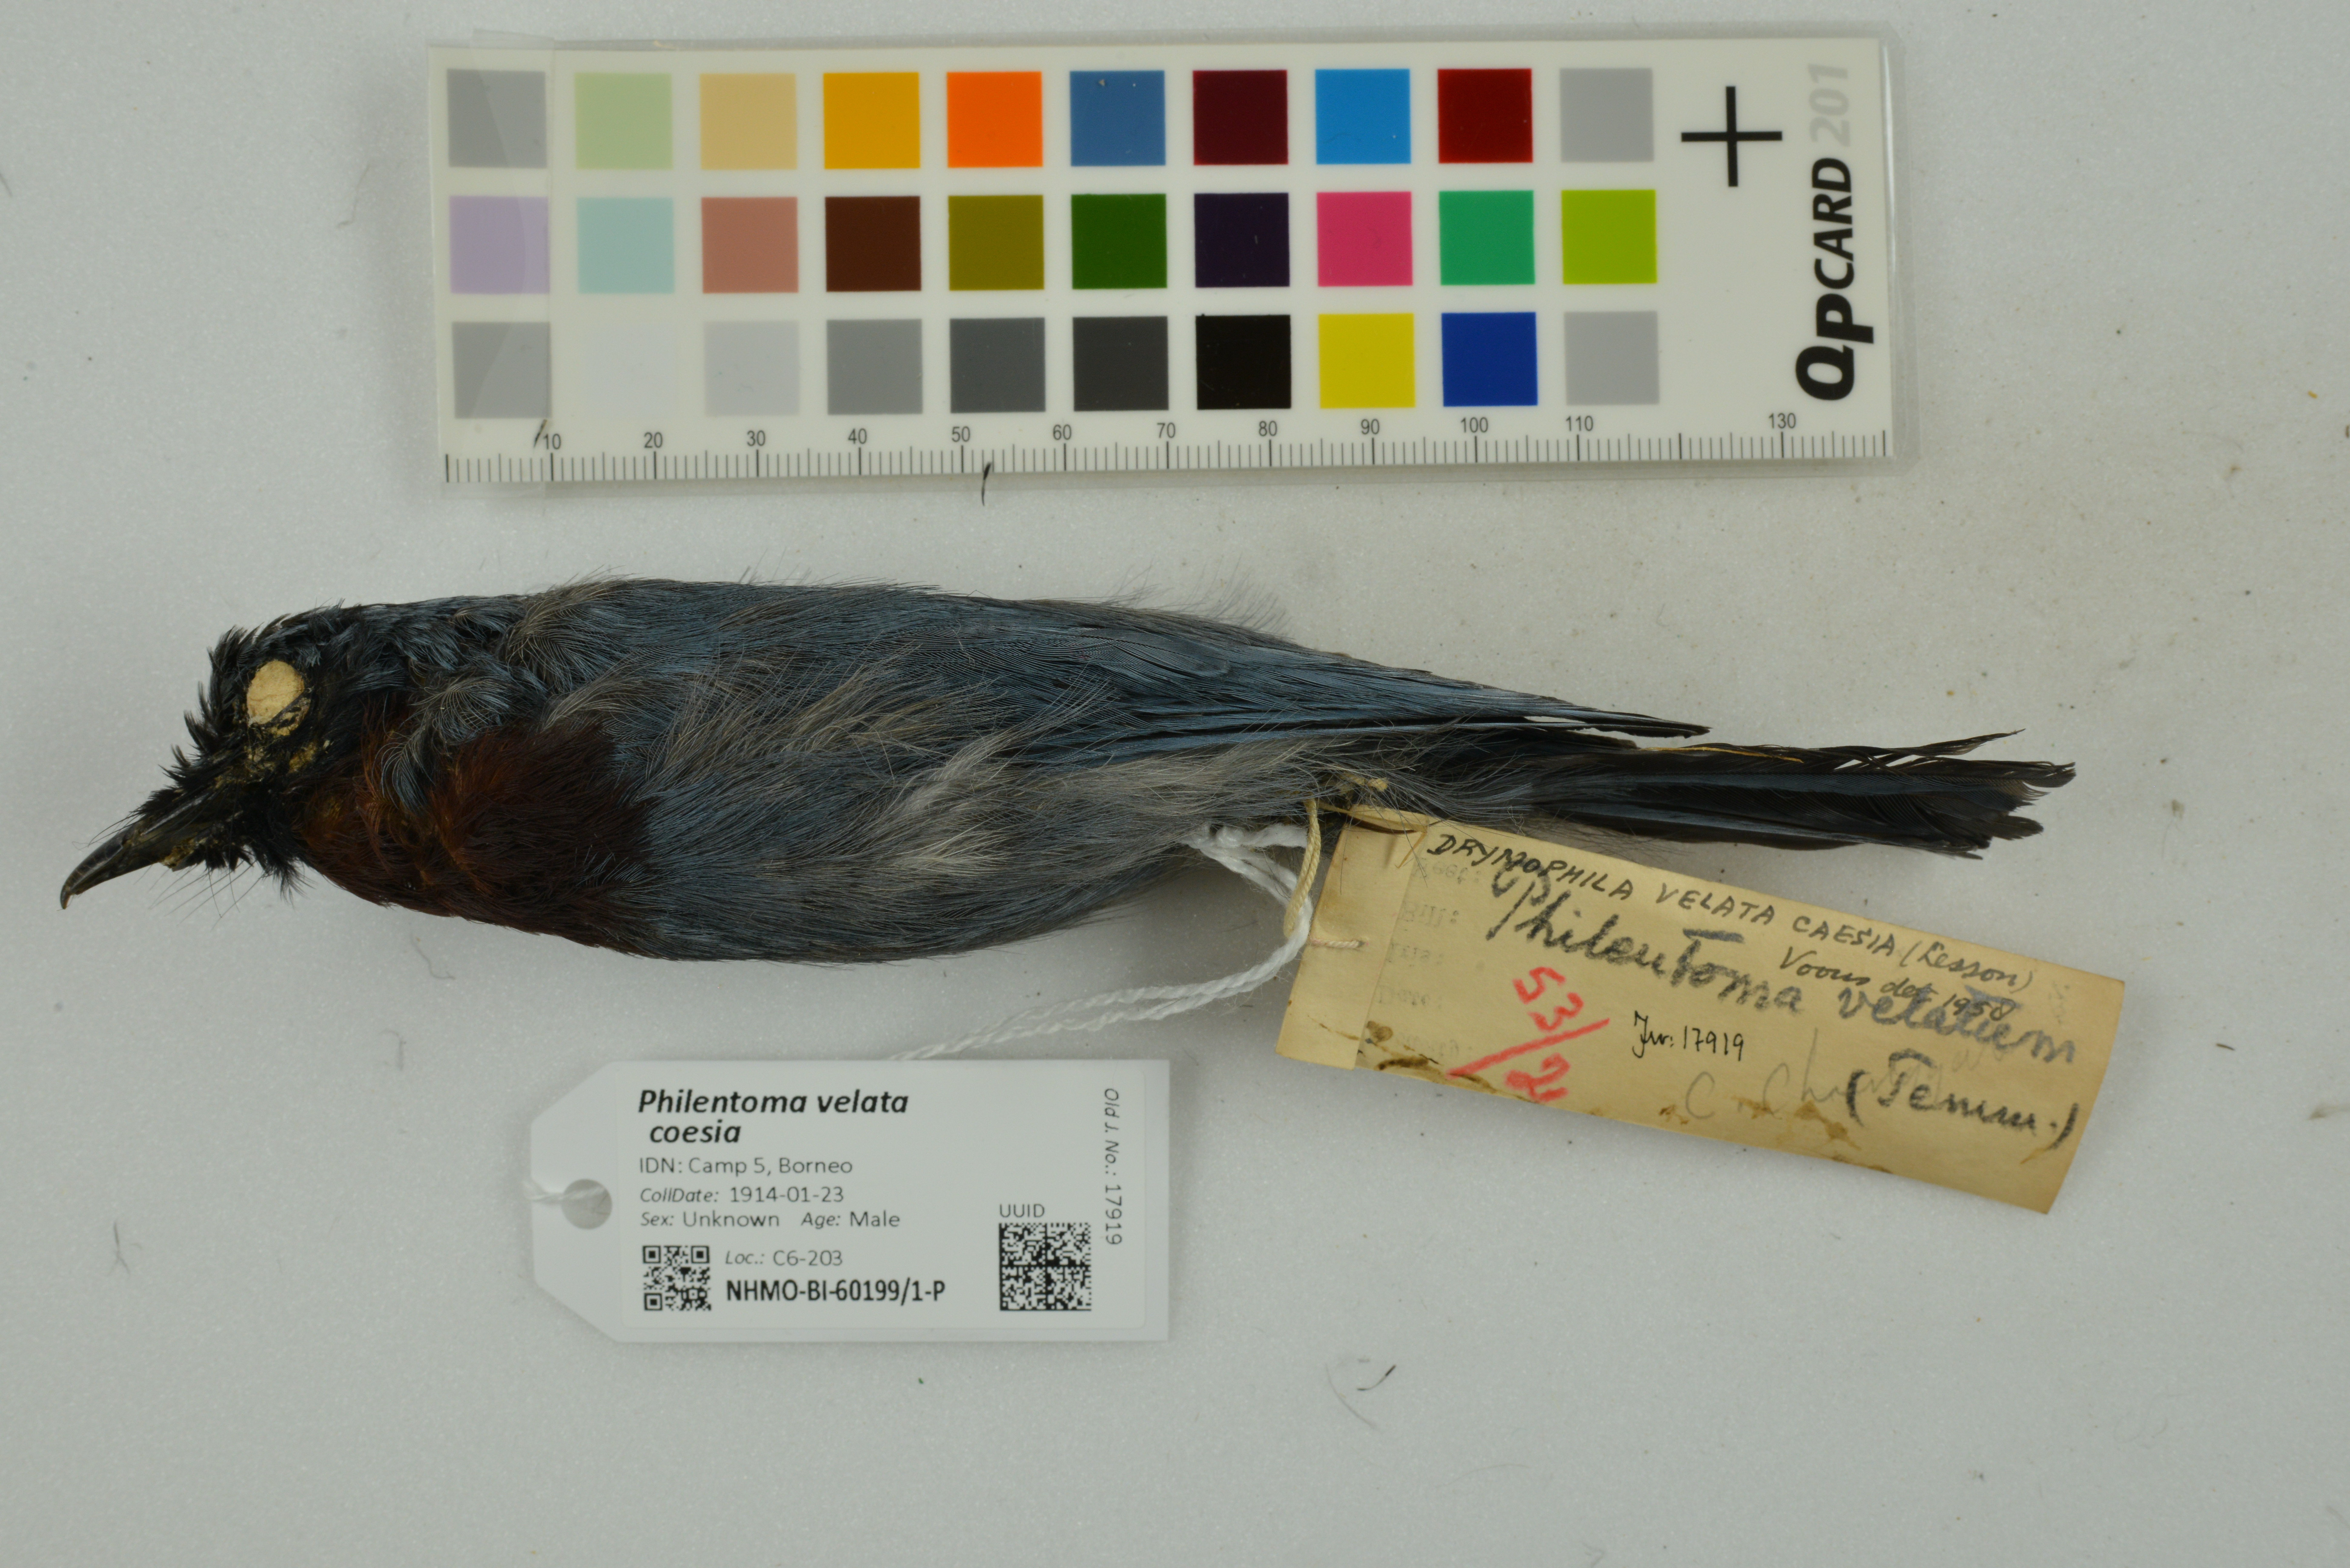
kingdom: Animalia
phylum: Chordata
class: Aves
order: Passeriformes
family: Tephrodornithidae
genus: Philentoma
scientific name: Philentoma velata
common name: Maroon-breasted philentoma
